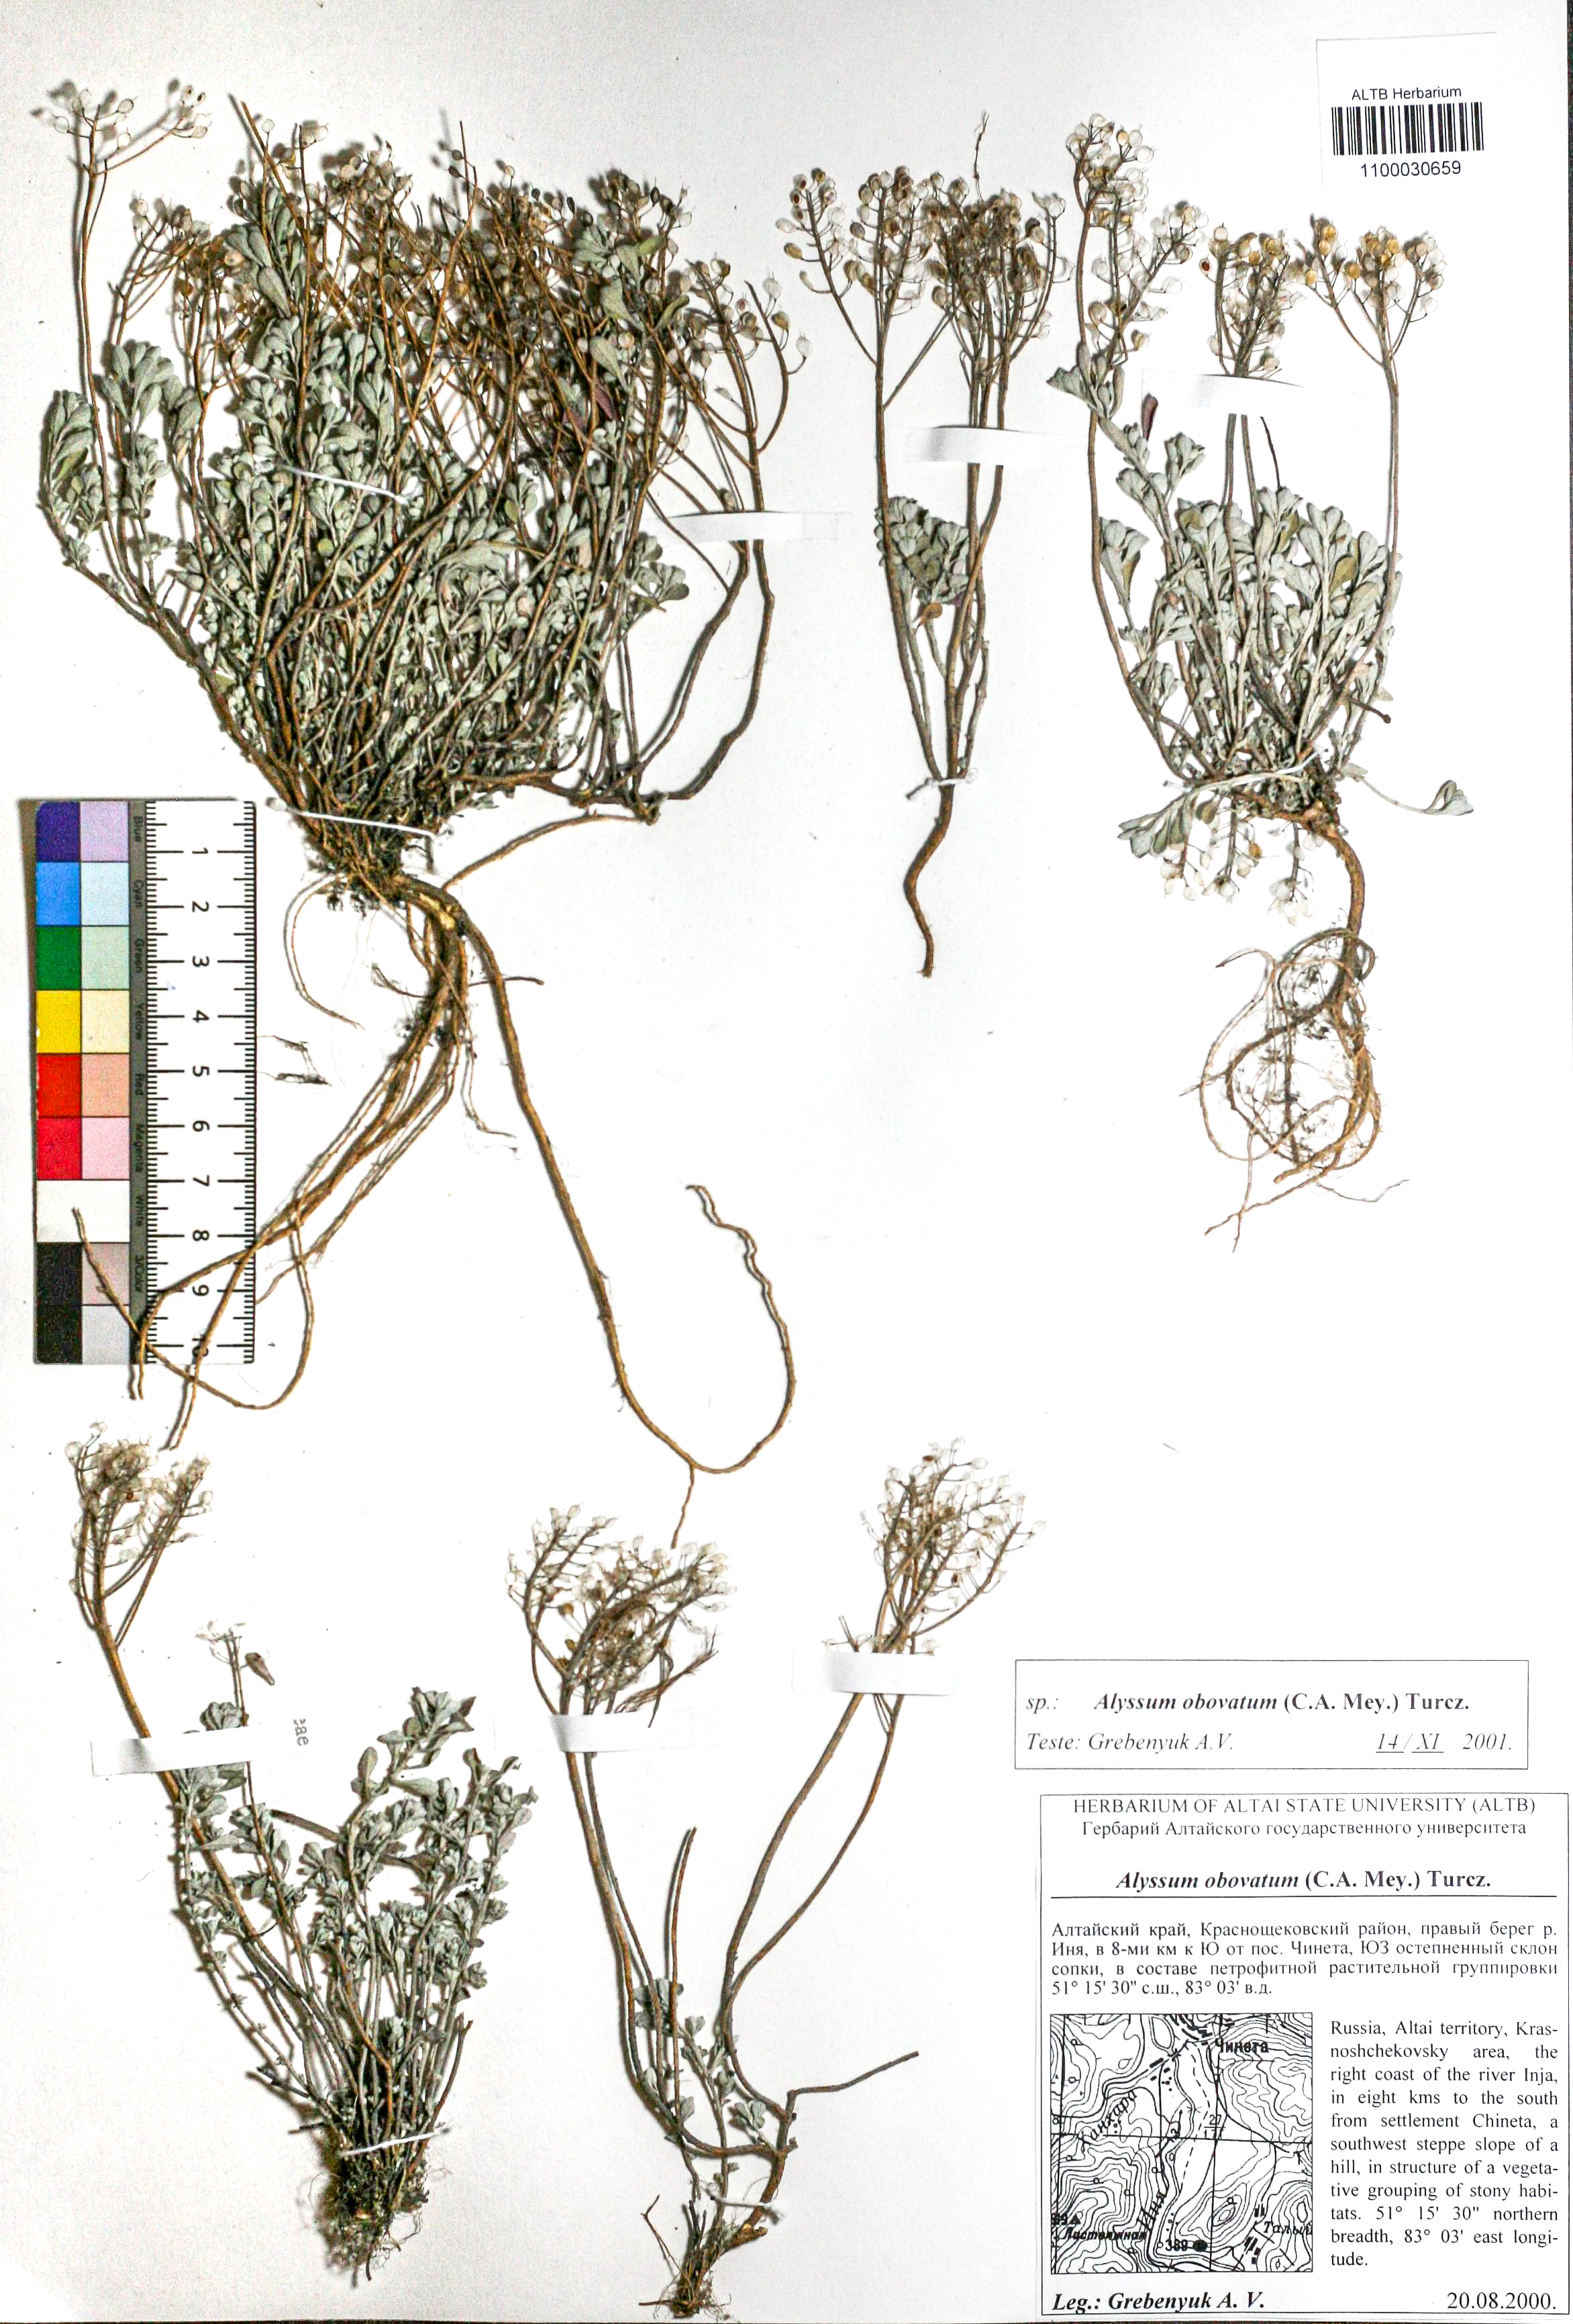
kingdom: Plantae
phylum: Tracheophyta
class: Magnoliopsida
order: Brassicales
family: Brassicaceae
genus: Odontarrhena
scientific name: Odontarrhena obovata
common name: American alyssum
